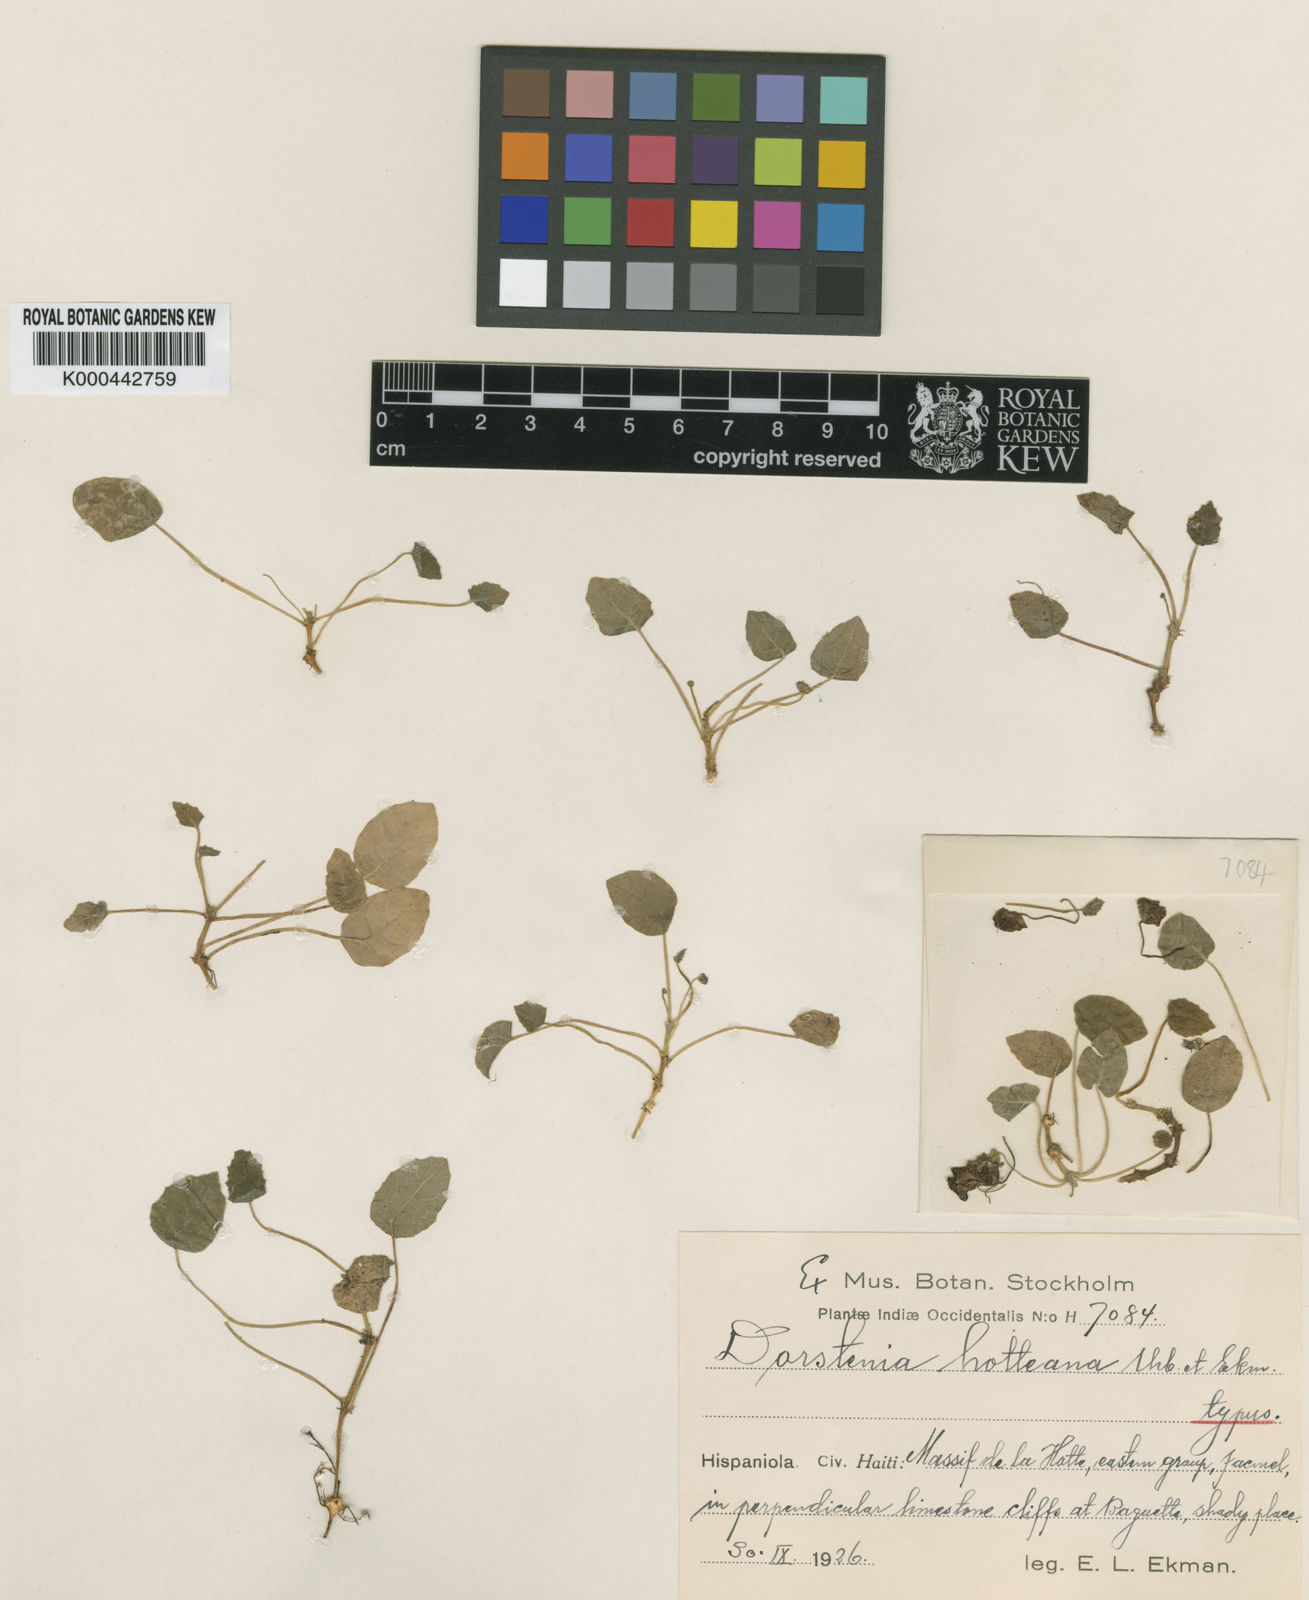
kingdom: Plantae
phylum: Tracheophyta
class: Magnoliopsida
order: Rosales
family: Moraceae
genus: Dorstenia
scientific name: Dorstenia flagellifera
